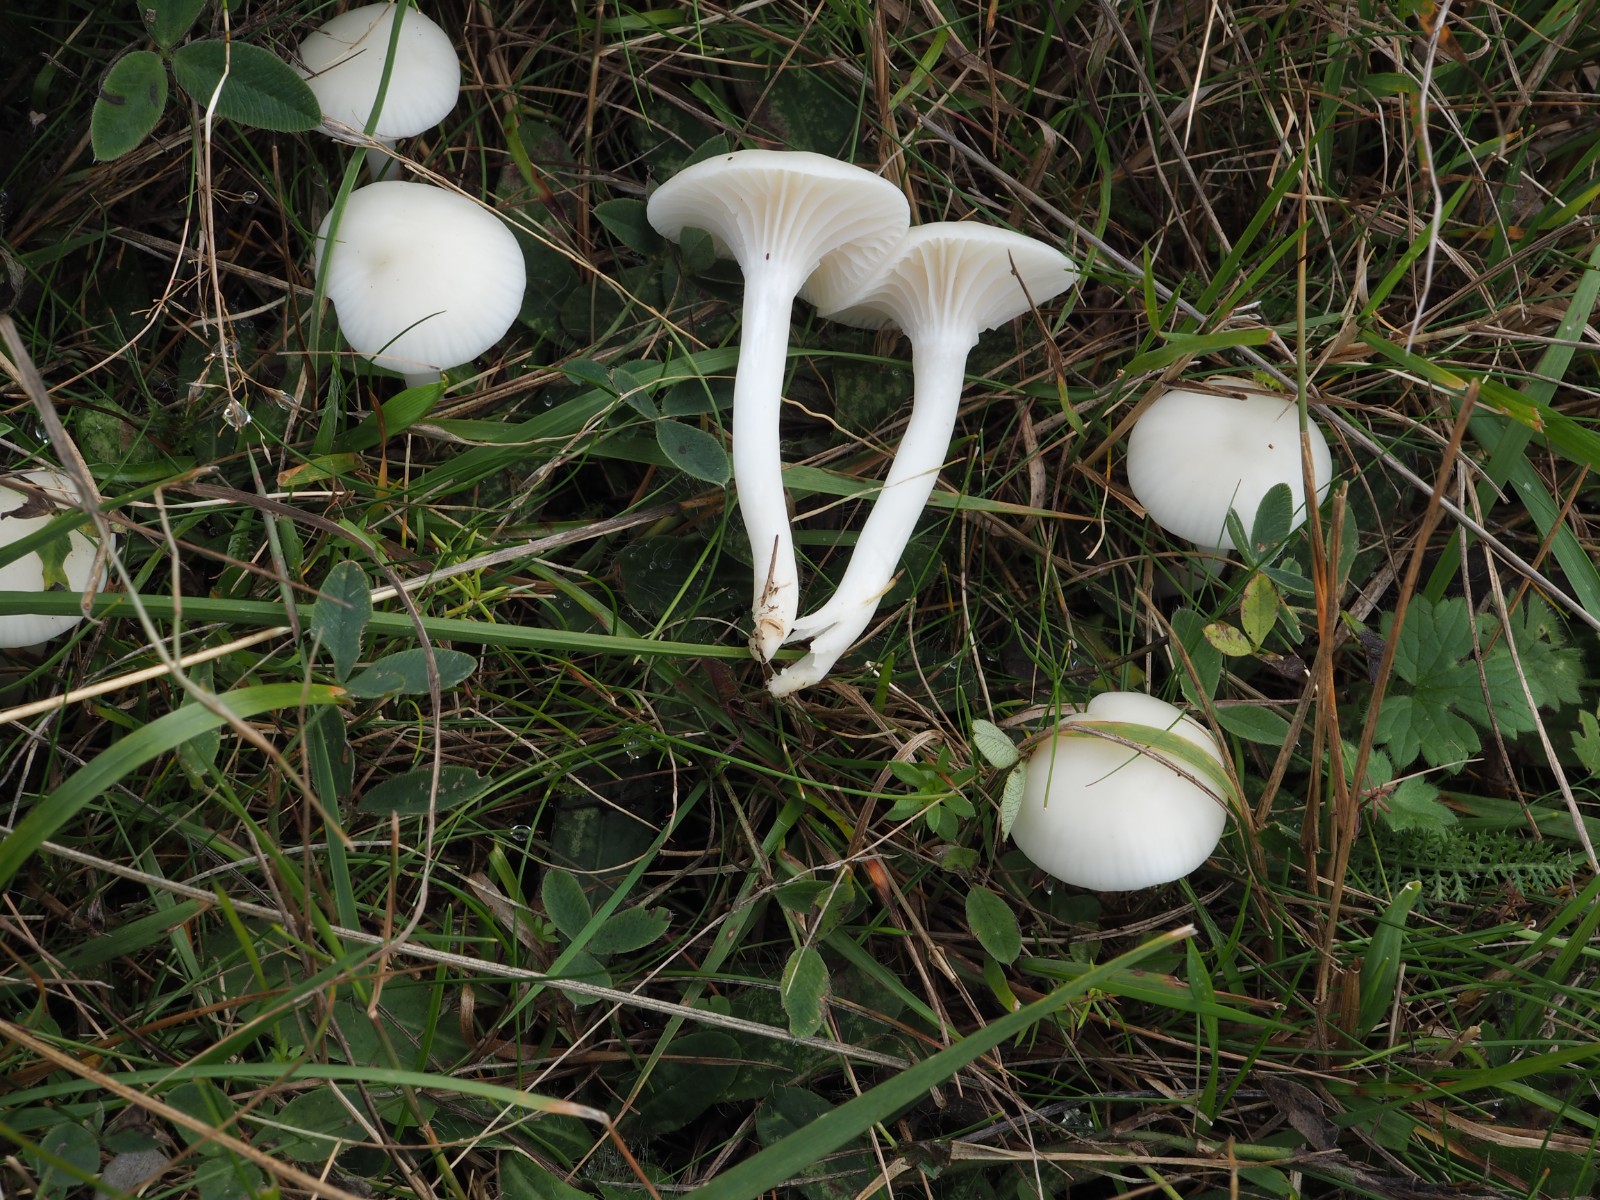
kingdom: Fungi
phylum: Basidiomycota
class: Agaricomycetes
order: Agaricales
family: Hygrophoraceae
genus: Cuphophyllus
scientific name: Cuphophyllus virgineus
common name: snehvid vokshat
